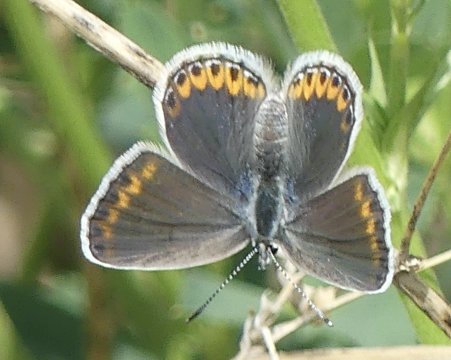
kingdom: Animalia
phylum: Arthropoda
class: Insecta
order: Lepidoptera
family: Lycaenidae
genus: Lycaeides
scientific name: Lycaeides melissa
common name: Melissa Blue
